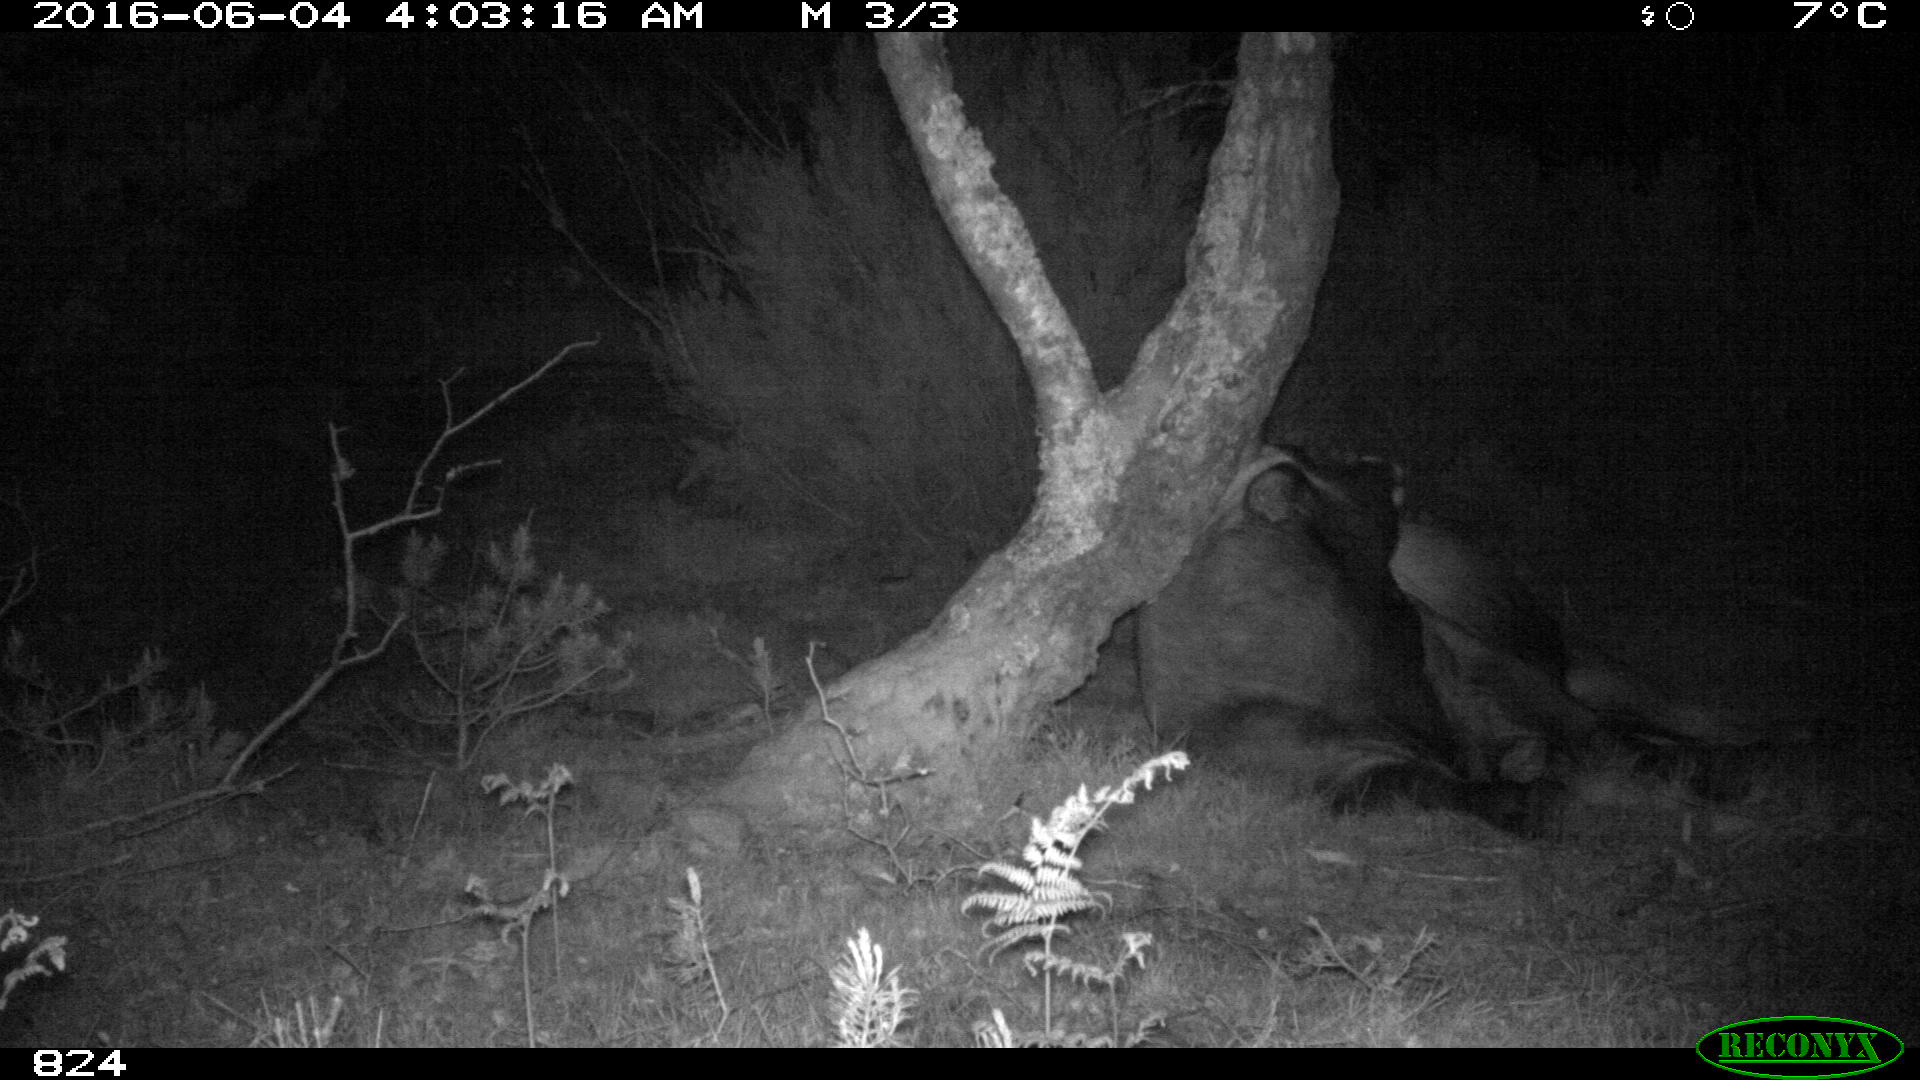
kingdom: Animalia
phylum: Chordata
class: Mammalia
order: Artiodactyla
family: Bovidae
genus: Bos
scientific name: Bos taurus
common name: Domesticated cattle
